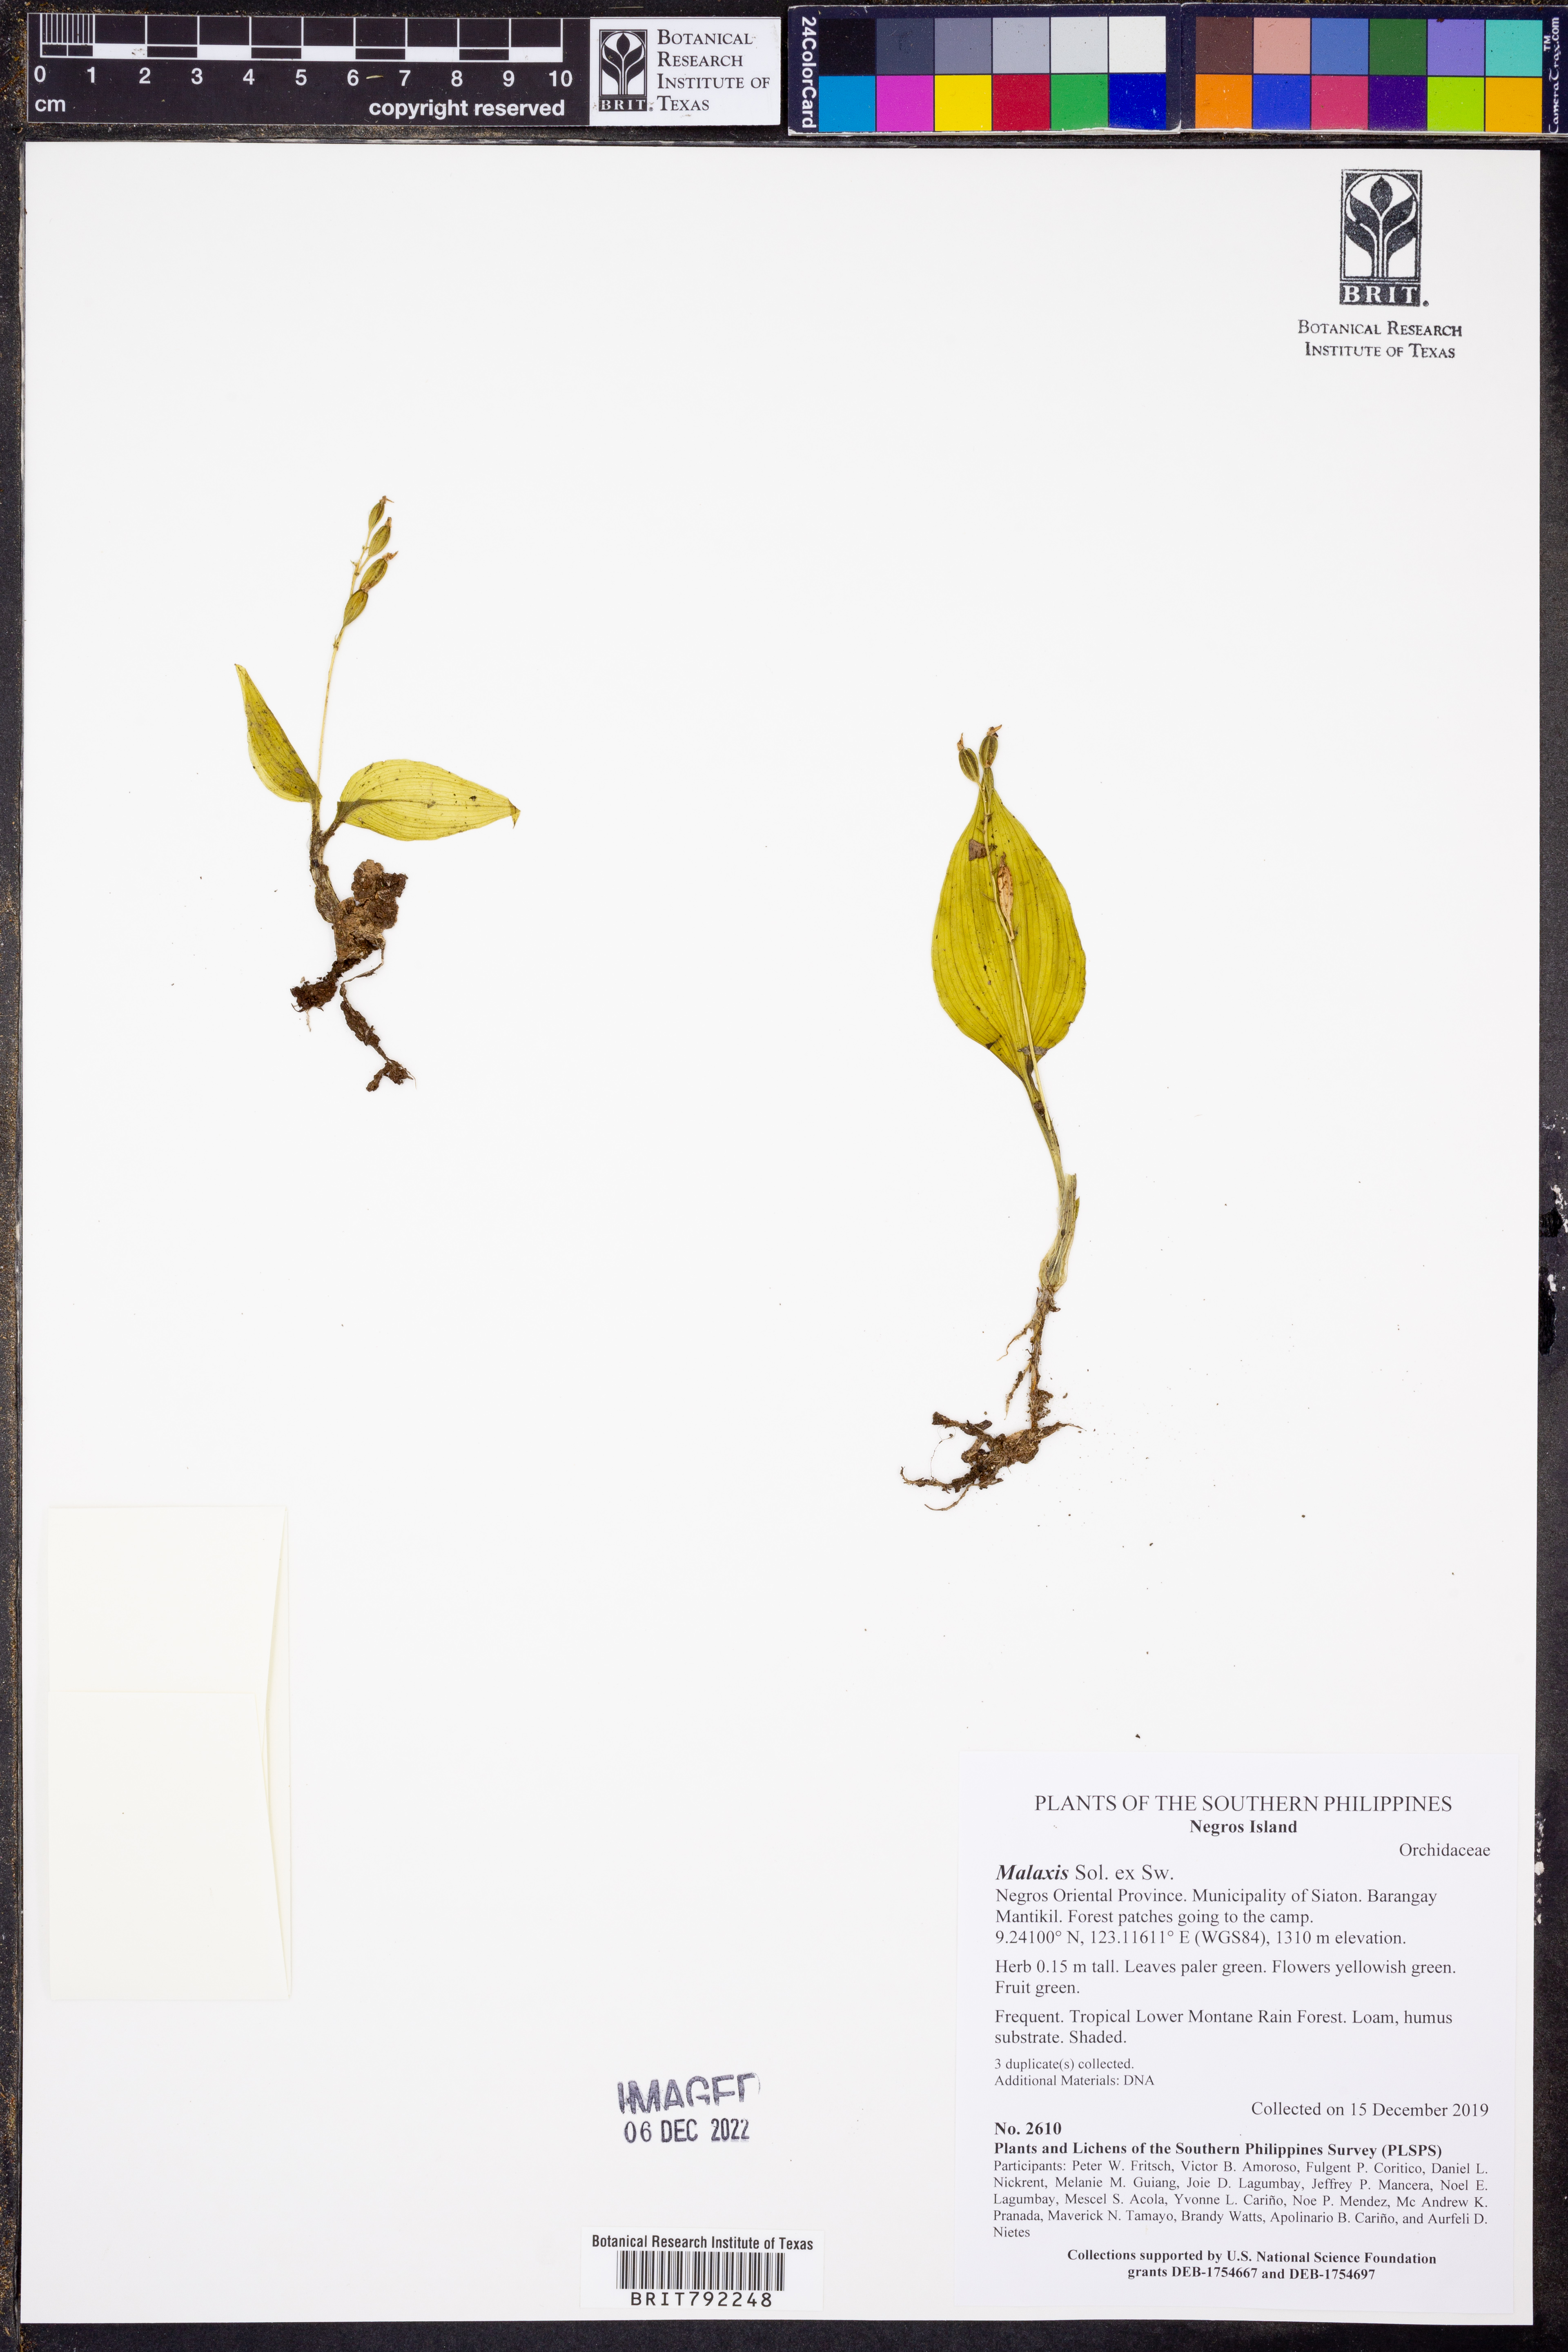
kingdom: Plantae
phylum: Tracheophyta
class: Liliopsida
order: Asparagales
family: Orchidaceae
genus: Malaxis
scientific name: Malaxis
